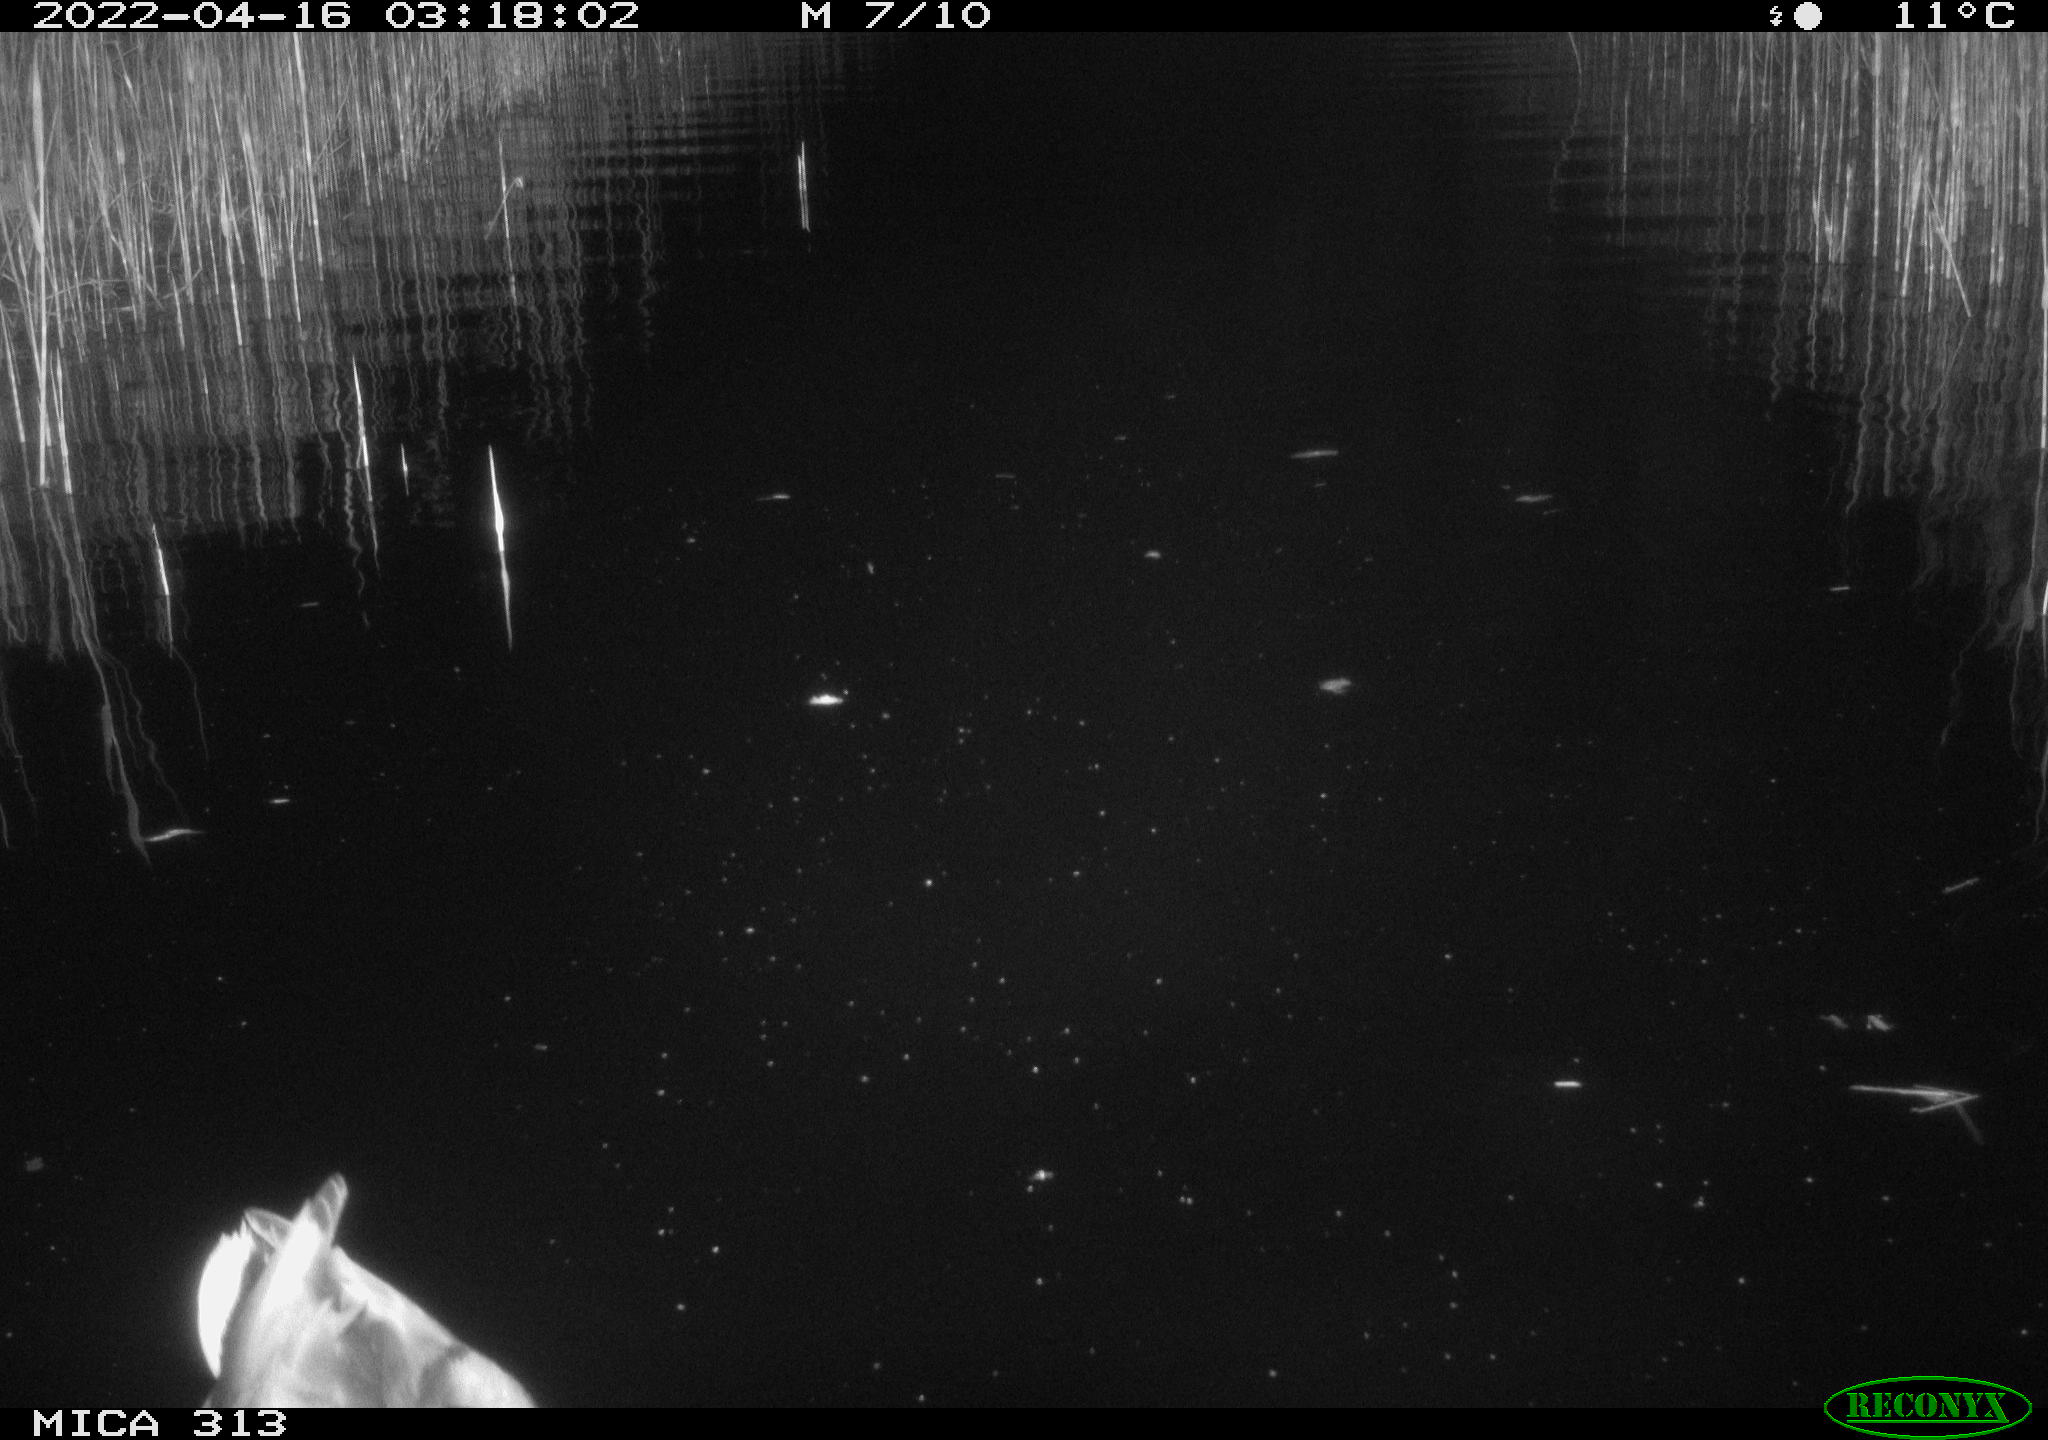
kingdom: Animalia
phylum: Chordata
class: Aves
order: Anseriformes
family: Anatidae
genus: Anas
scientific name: Anas platyrhynchos
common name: Mallard
